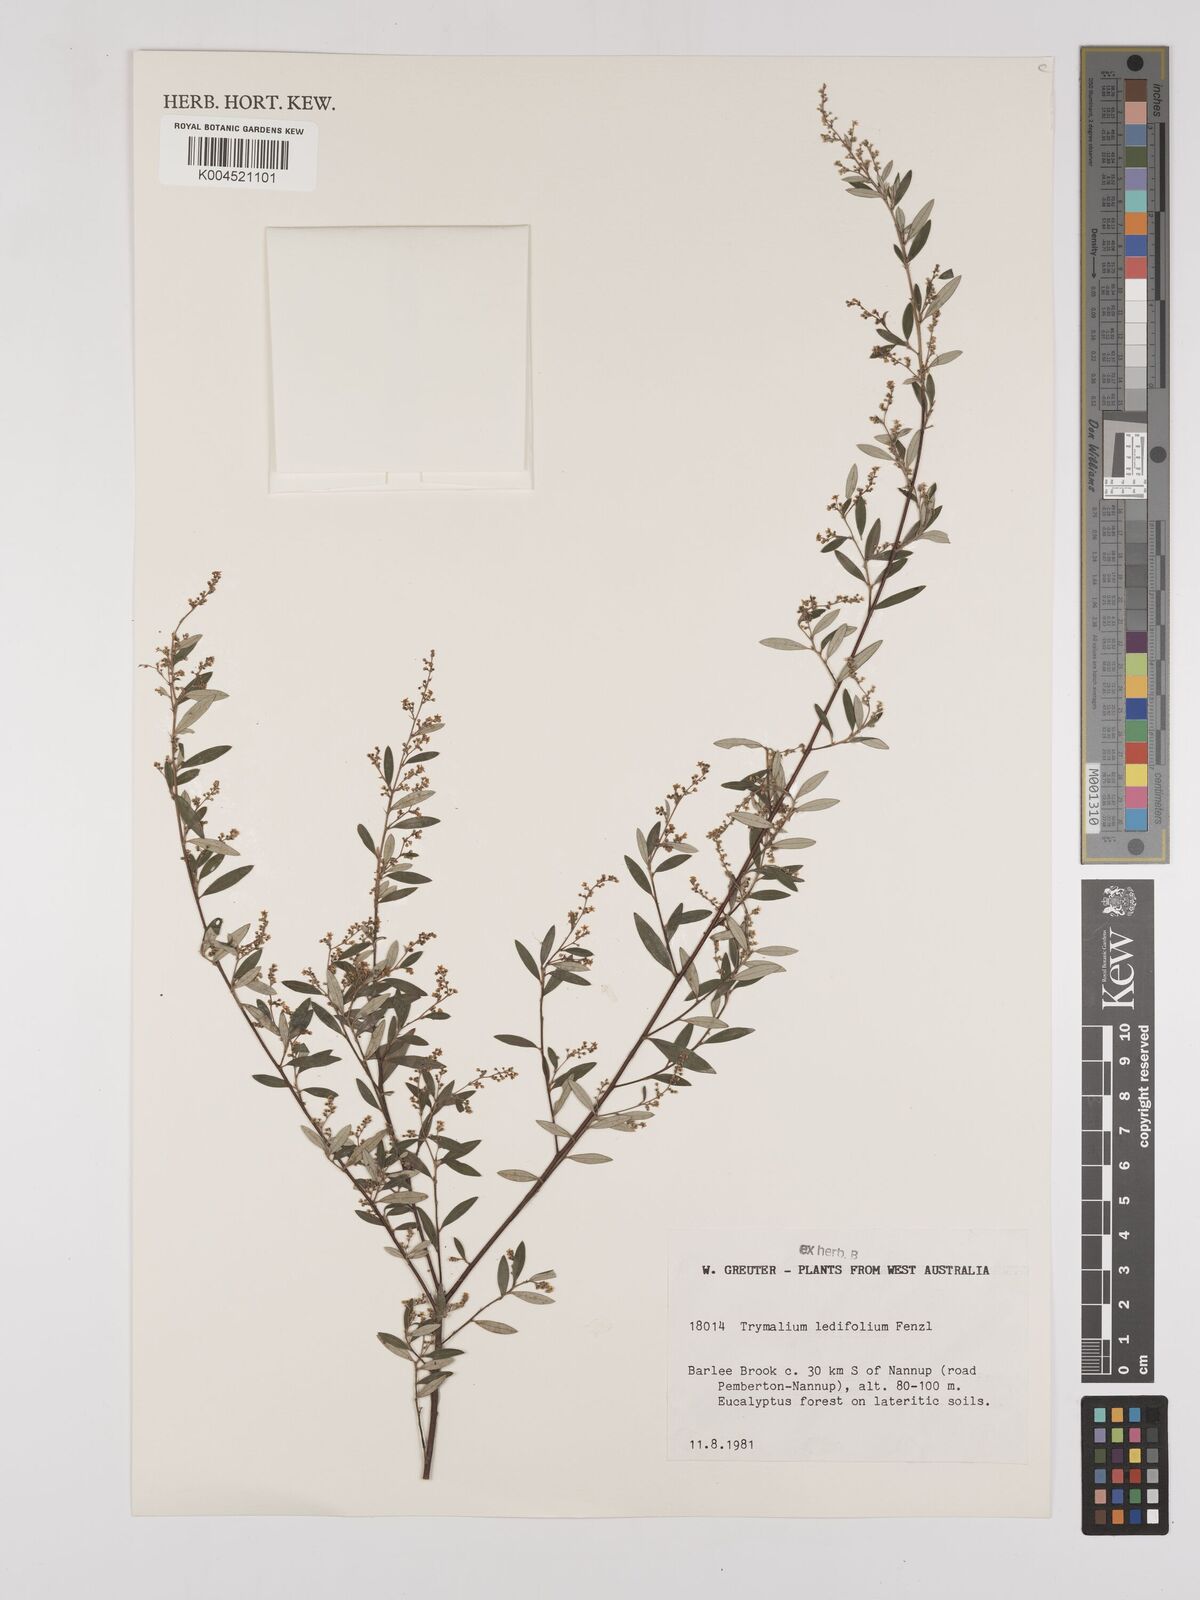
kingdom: Plantae
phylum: Tracheophyta
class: Magnoliopsida
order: Rosales
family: Rhamnaceae
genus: Trymalium
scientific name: Trymalium ledifolium
